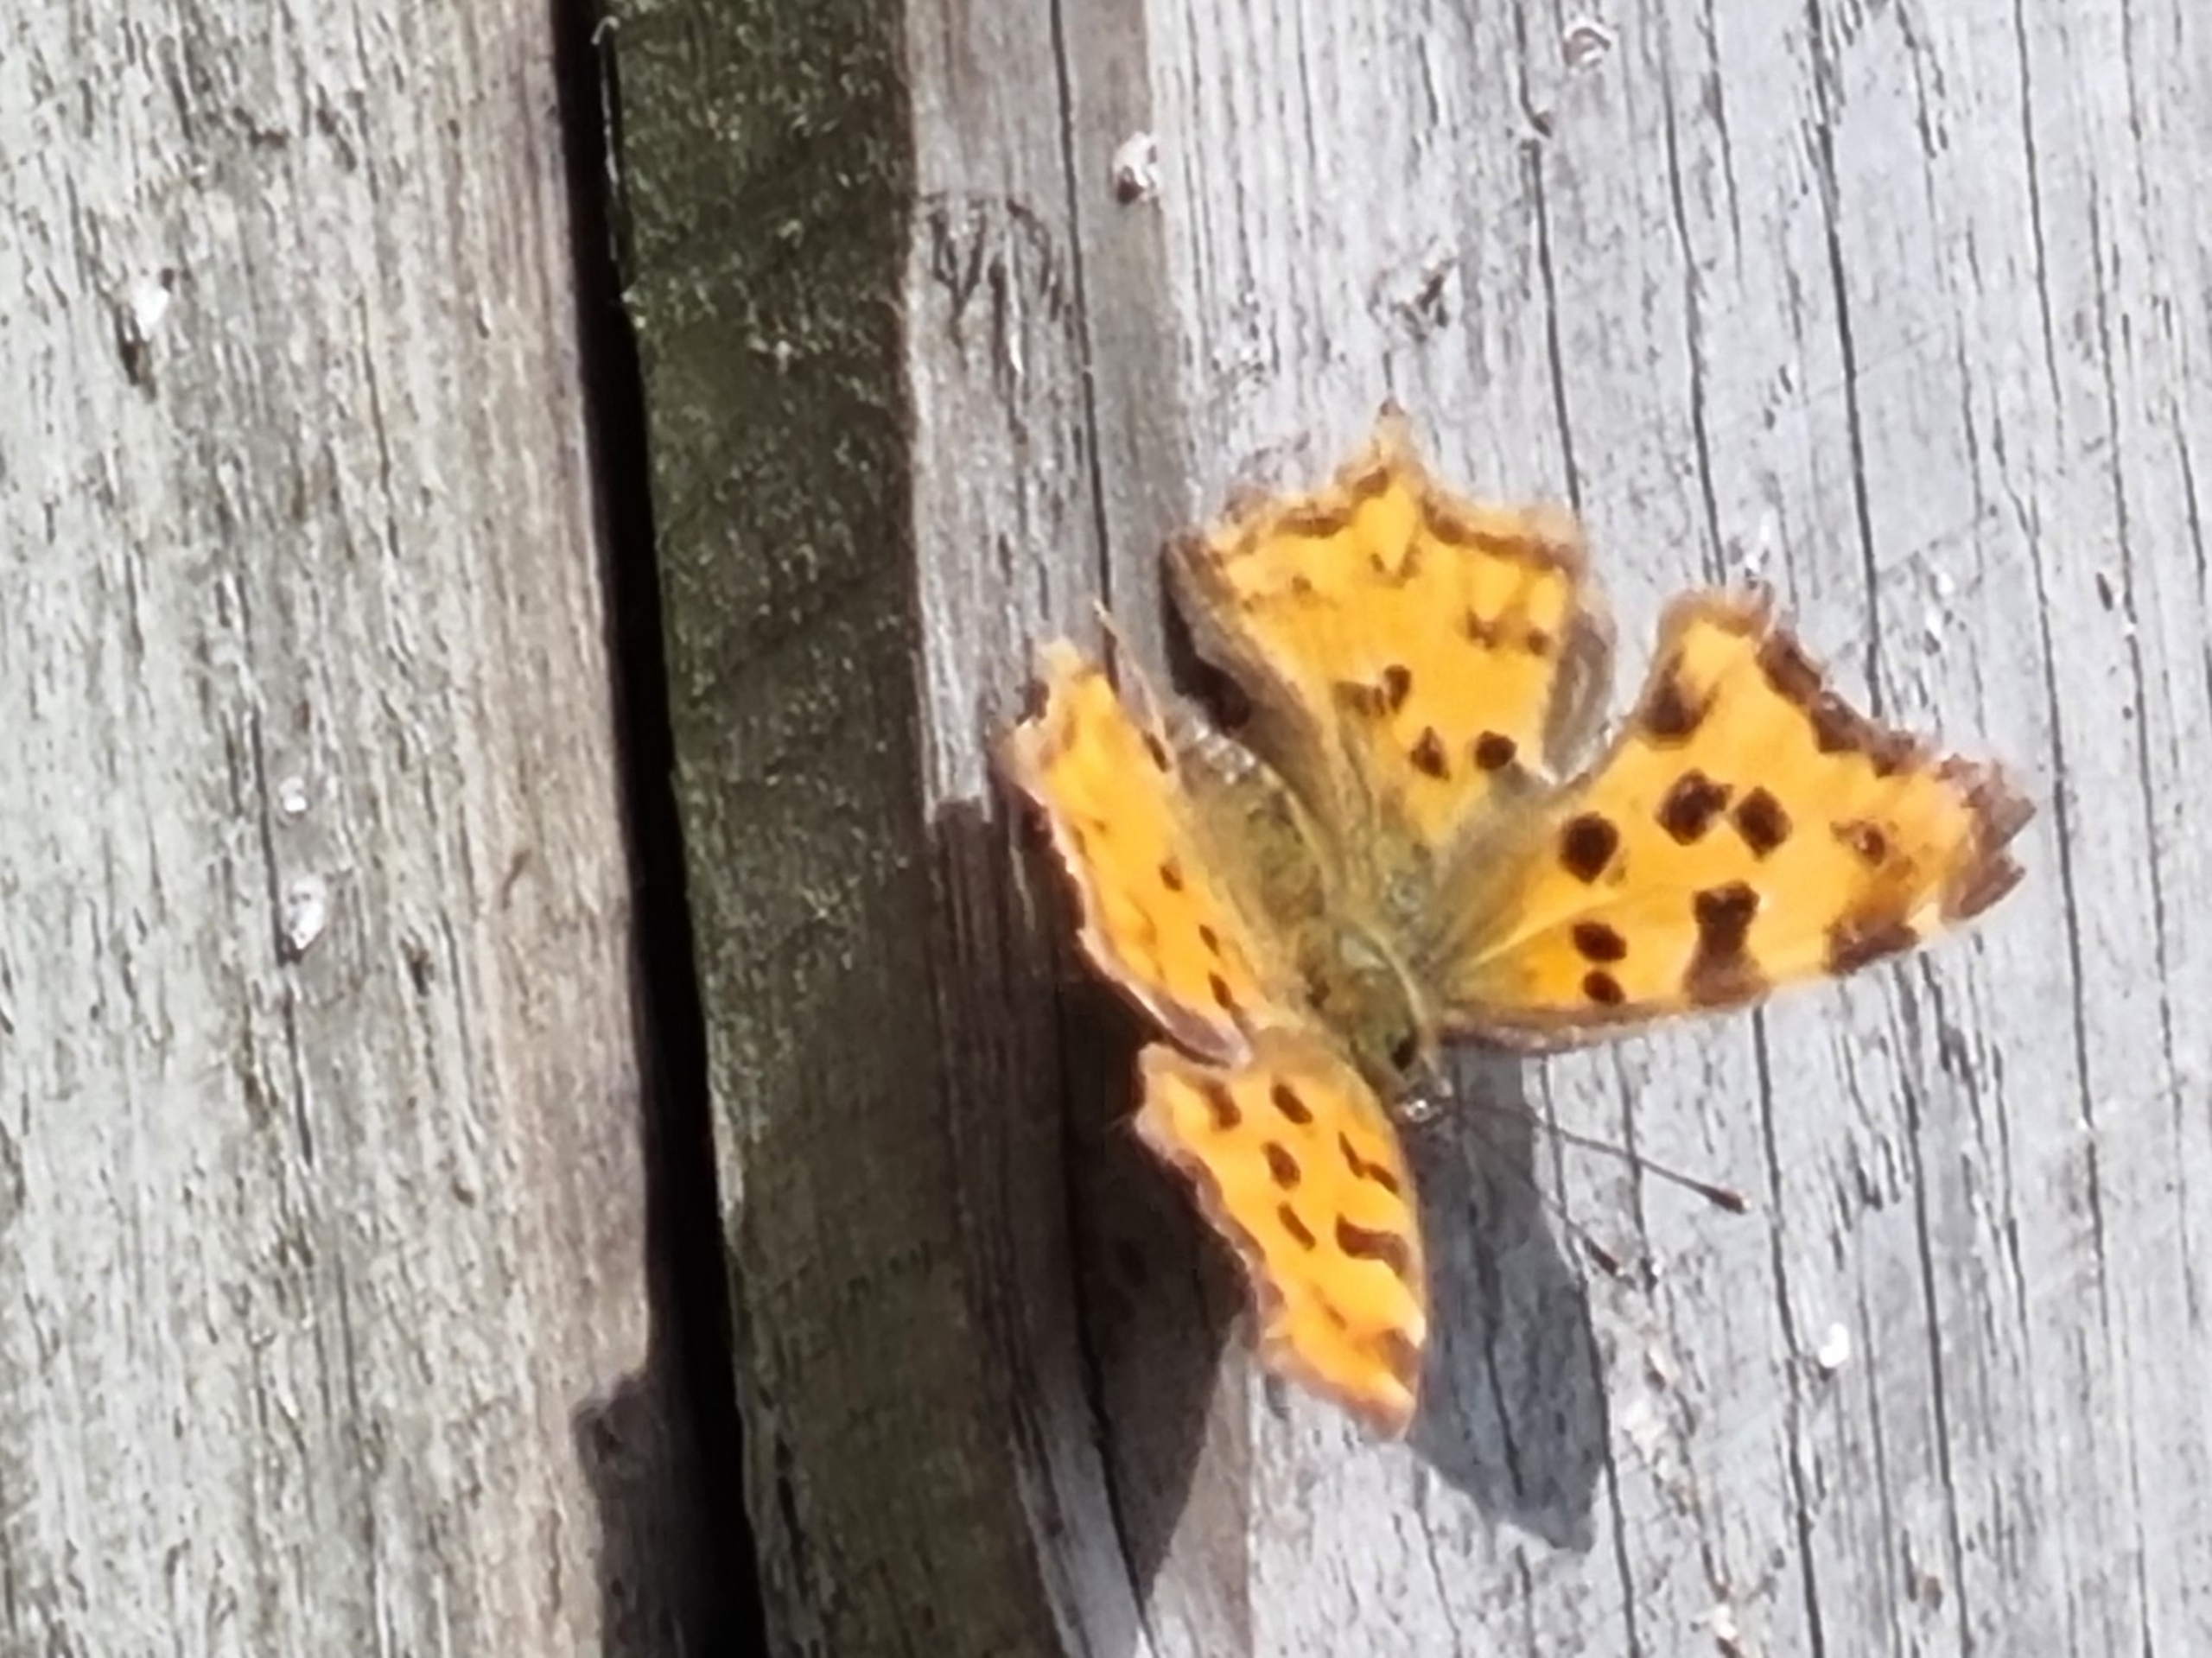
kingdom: Animalia
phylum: Arthropoda
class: Insecta
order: Lepidoptera
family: Nymphalidae
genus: Polygonia
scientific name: Polygonia c-album
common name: Det hvide C
